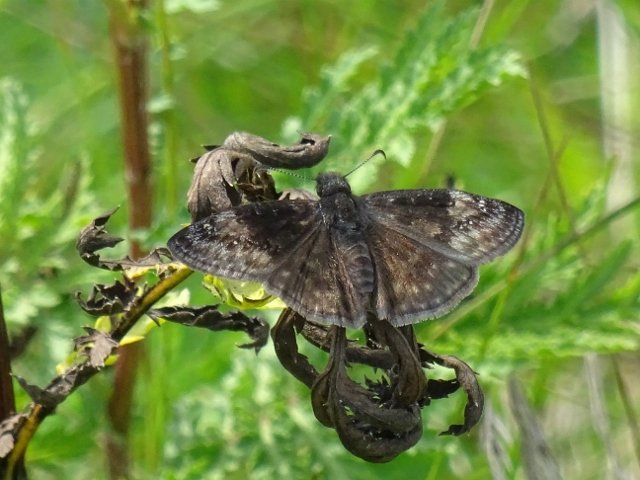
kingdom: Animalia
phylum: Arthropoda
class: Insecta
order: Lepidoptera
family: Hesperiidae
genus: Gesta
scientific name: Gesta
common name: Wild Indigo Duskywing
